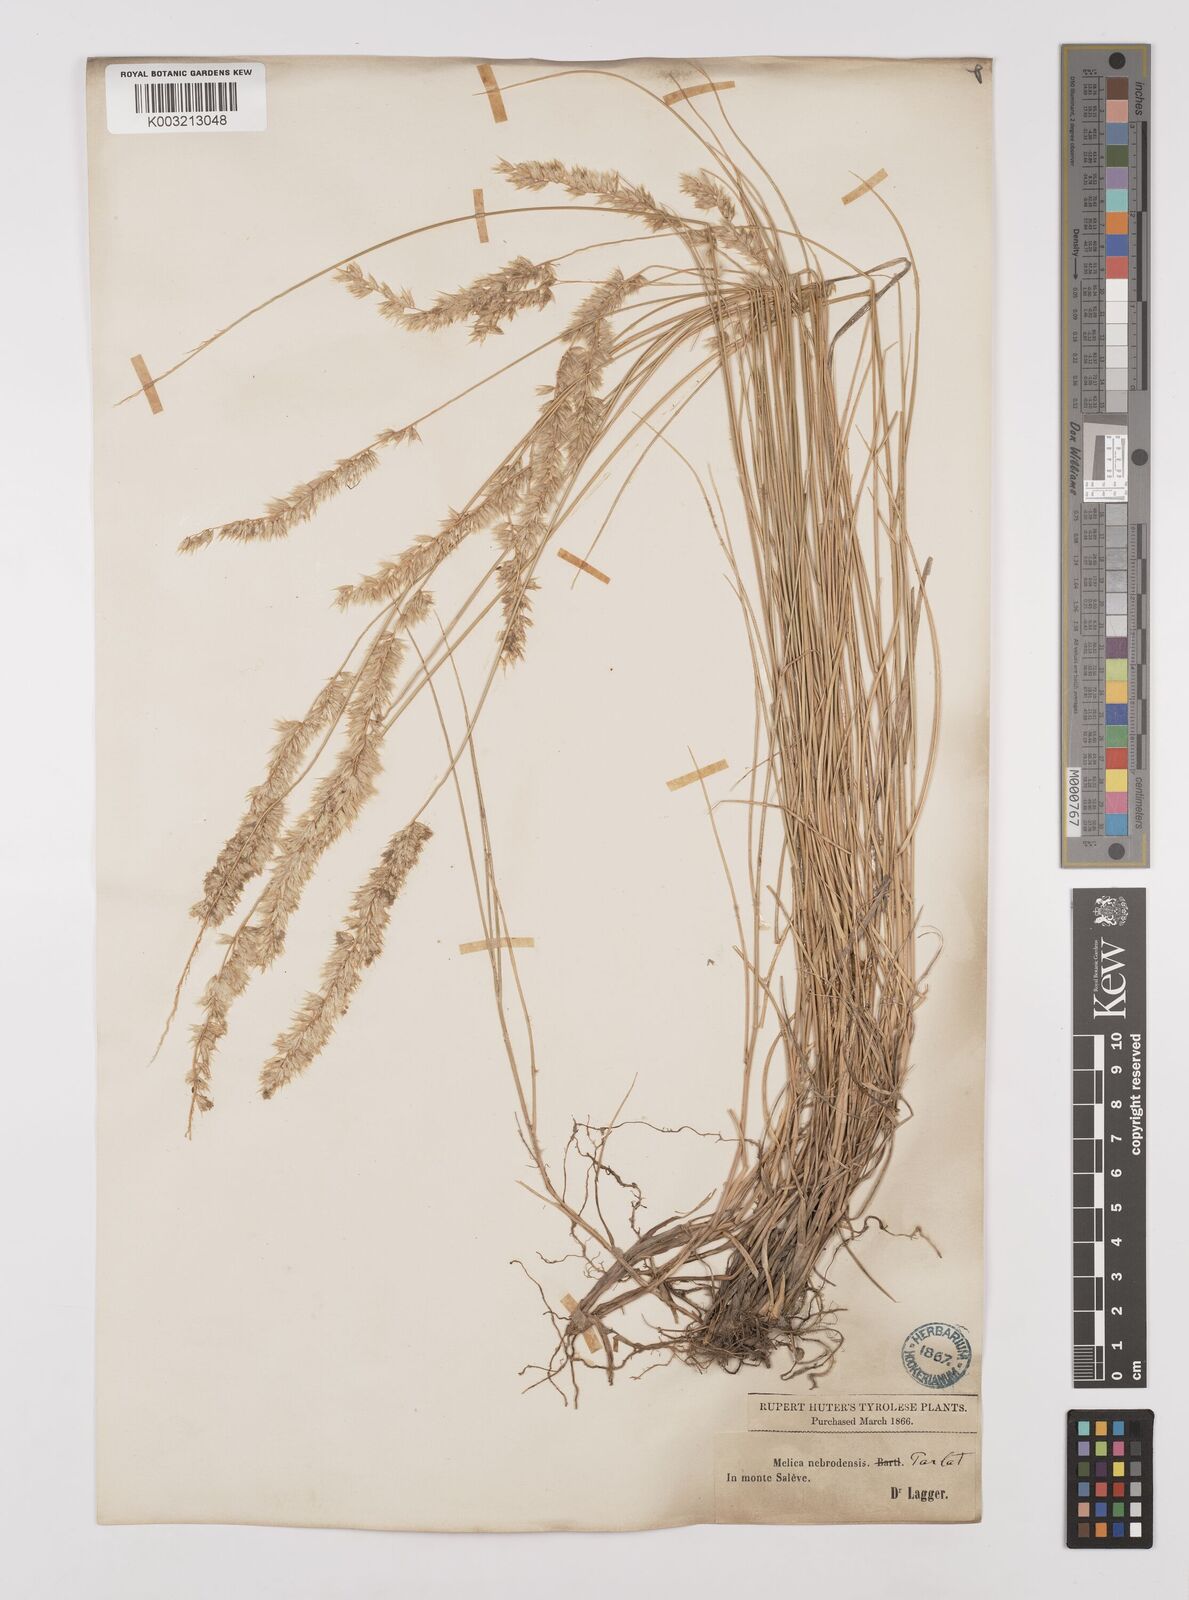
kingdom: Plantae
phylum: Tracheophyta
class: Liliopsida
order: Poales
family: Poaceae
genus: Melica
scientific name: Melica ciliata
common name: Hairy melicgrass
